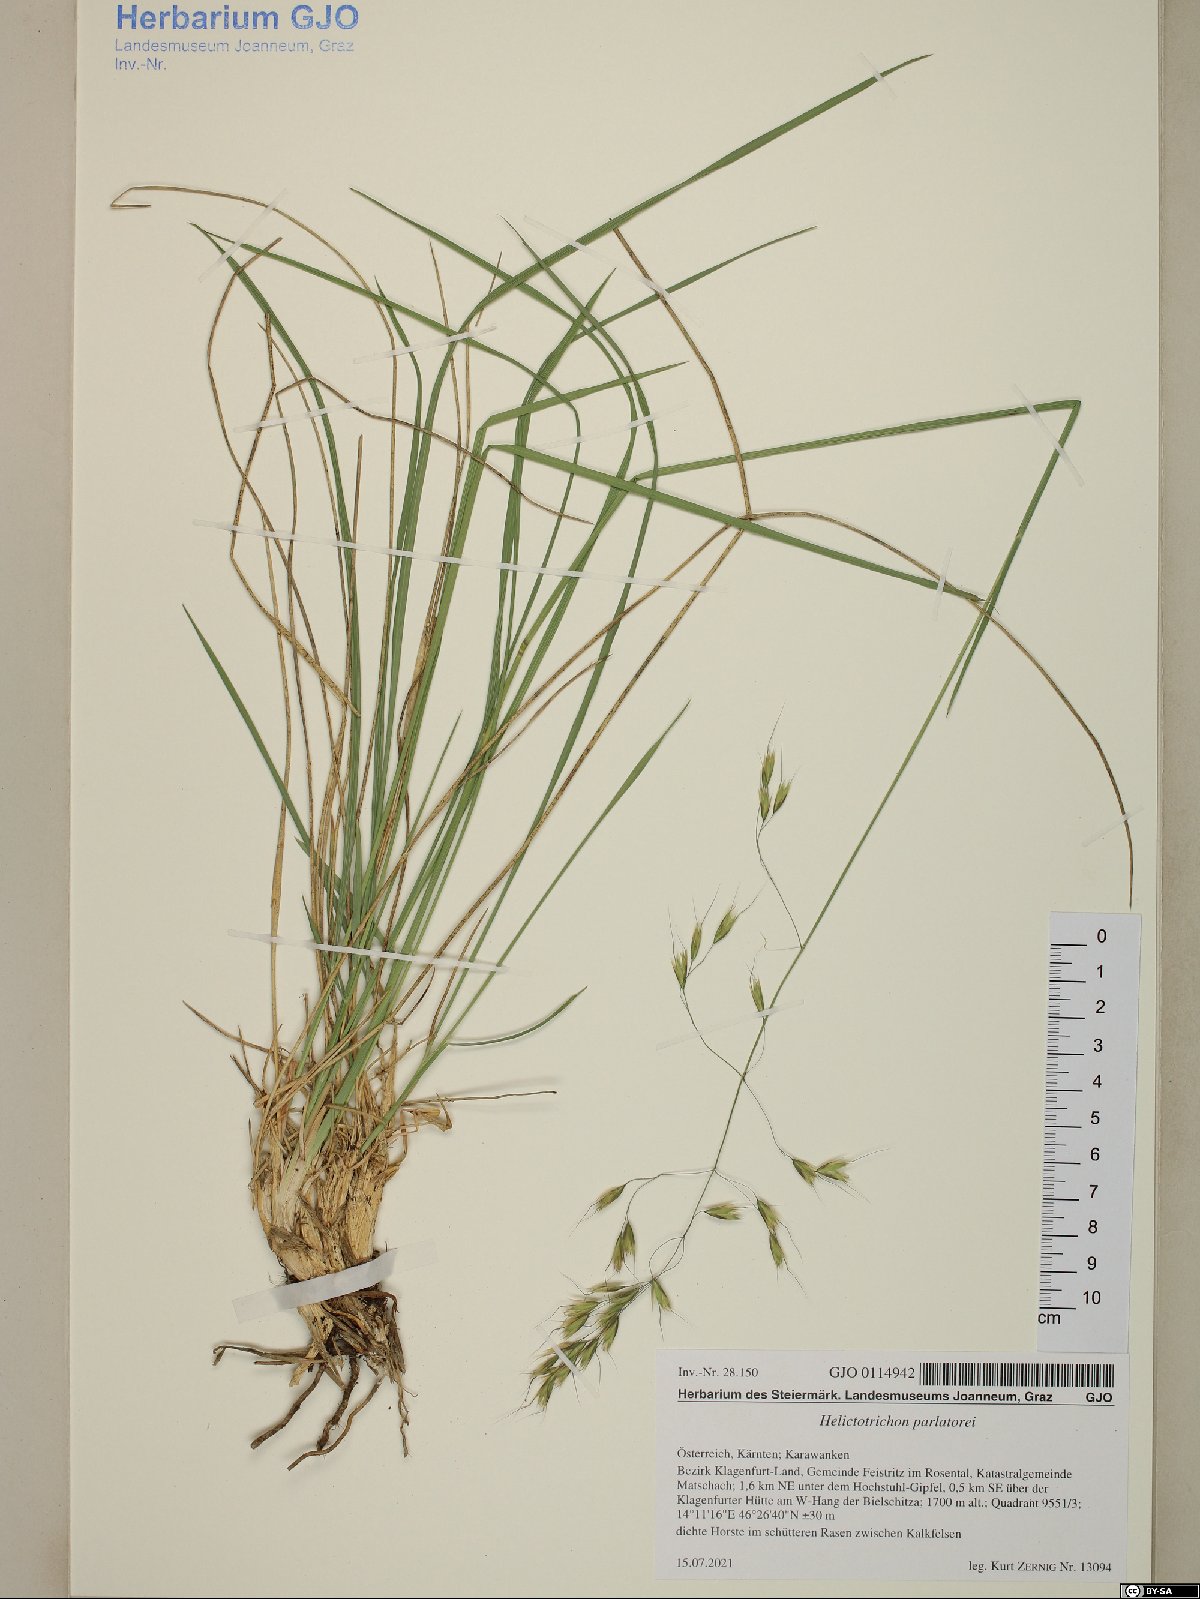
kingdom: Plantae
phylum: Tracheophyta
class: Liliopsida
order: Poales
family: Poaceae
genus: Helictotrichon
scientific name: Helictotrichon parlatorei
